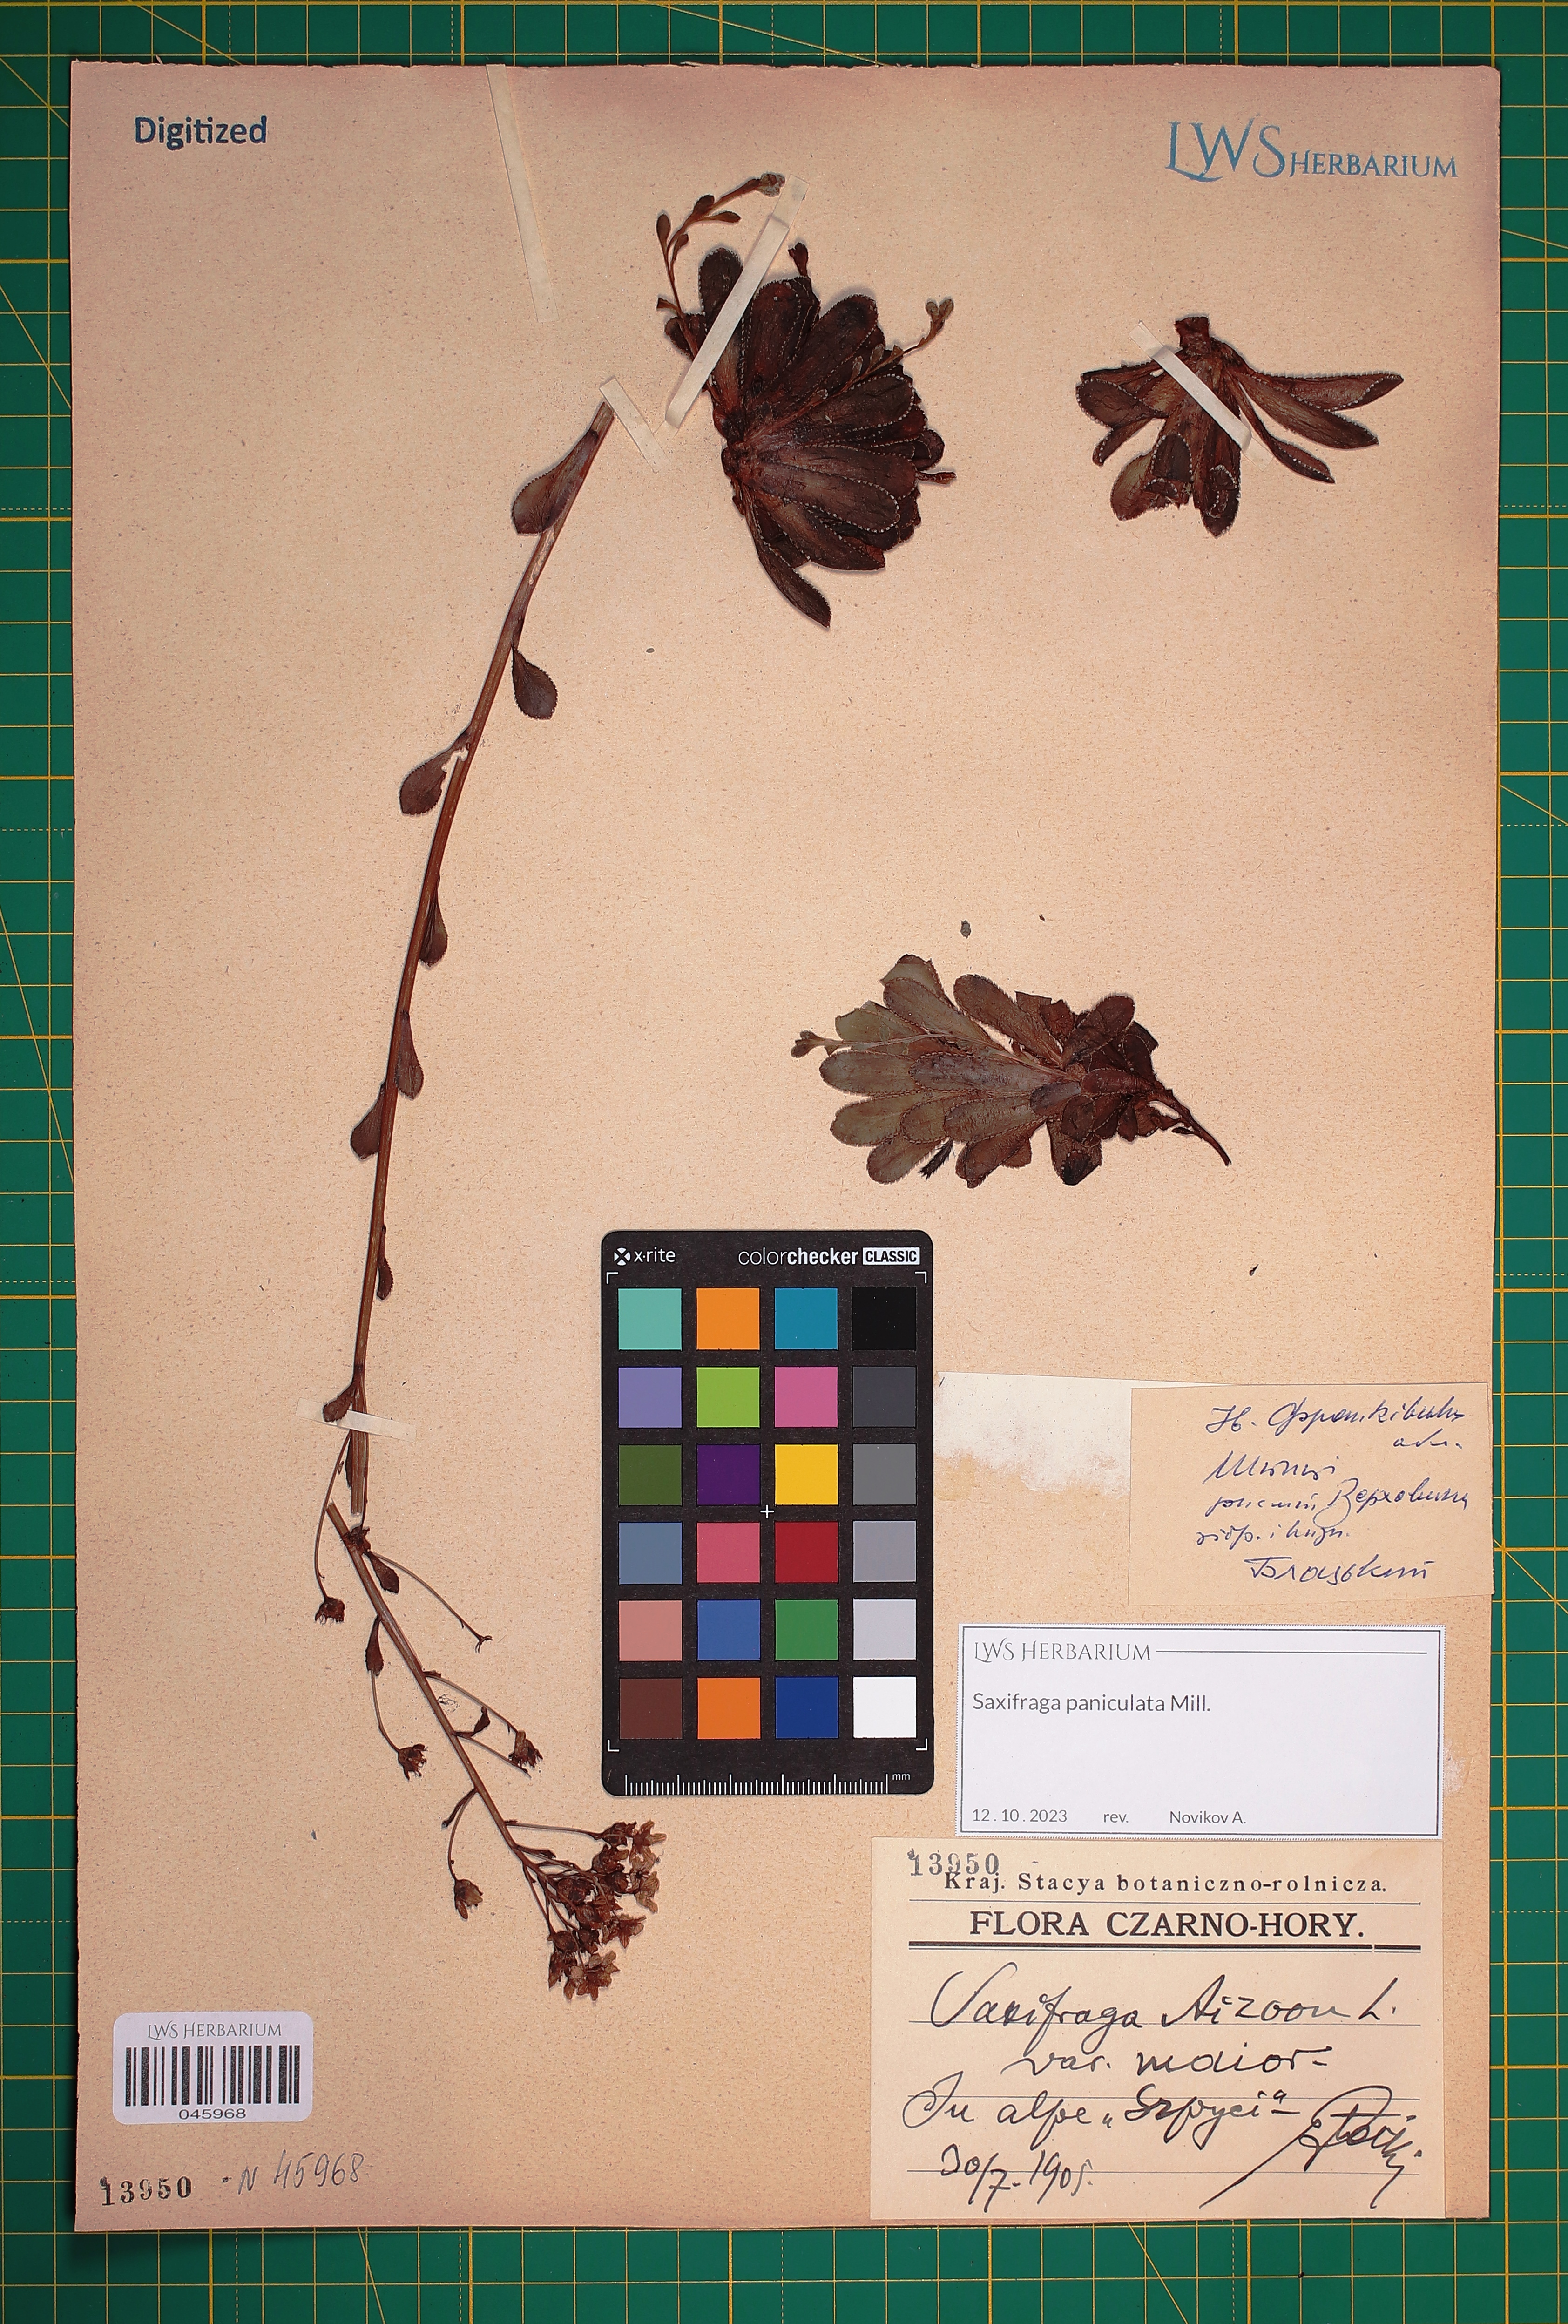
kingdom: Plantae
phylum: Tracheophyta
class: Magnoliopsida
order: Saxifragales
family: Saxifragaceae
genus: Saxifraga
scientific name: Saxifraga paniculata
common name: Livelong saxifrage
